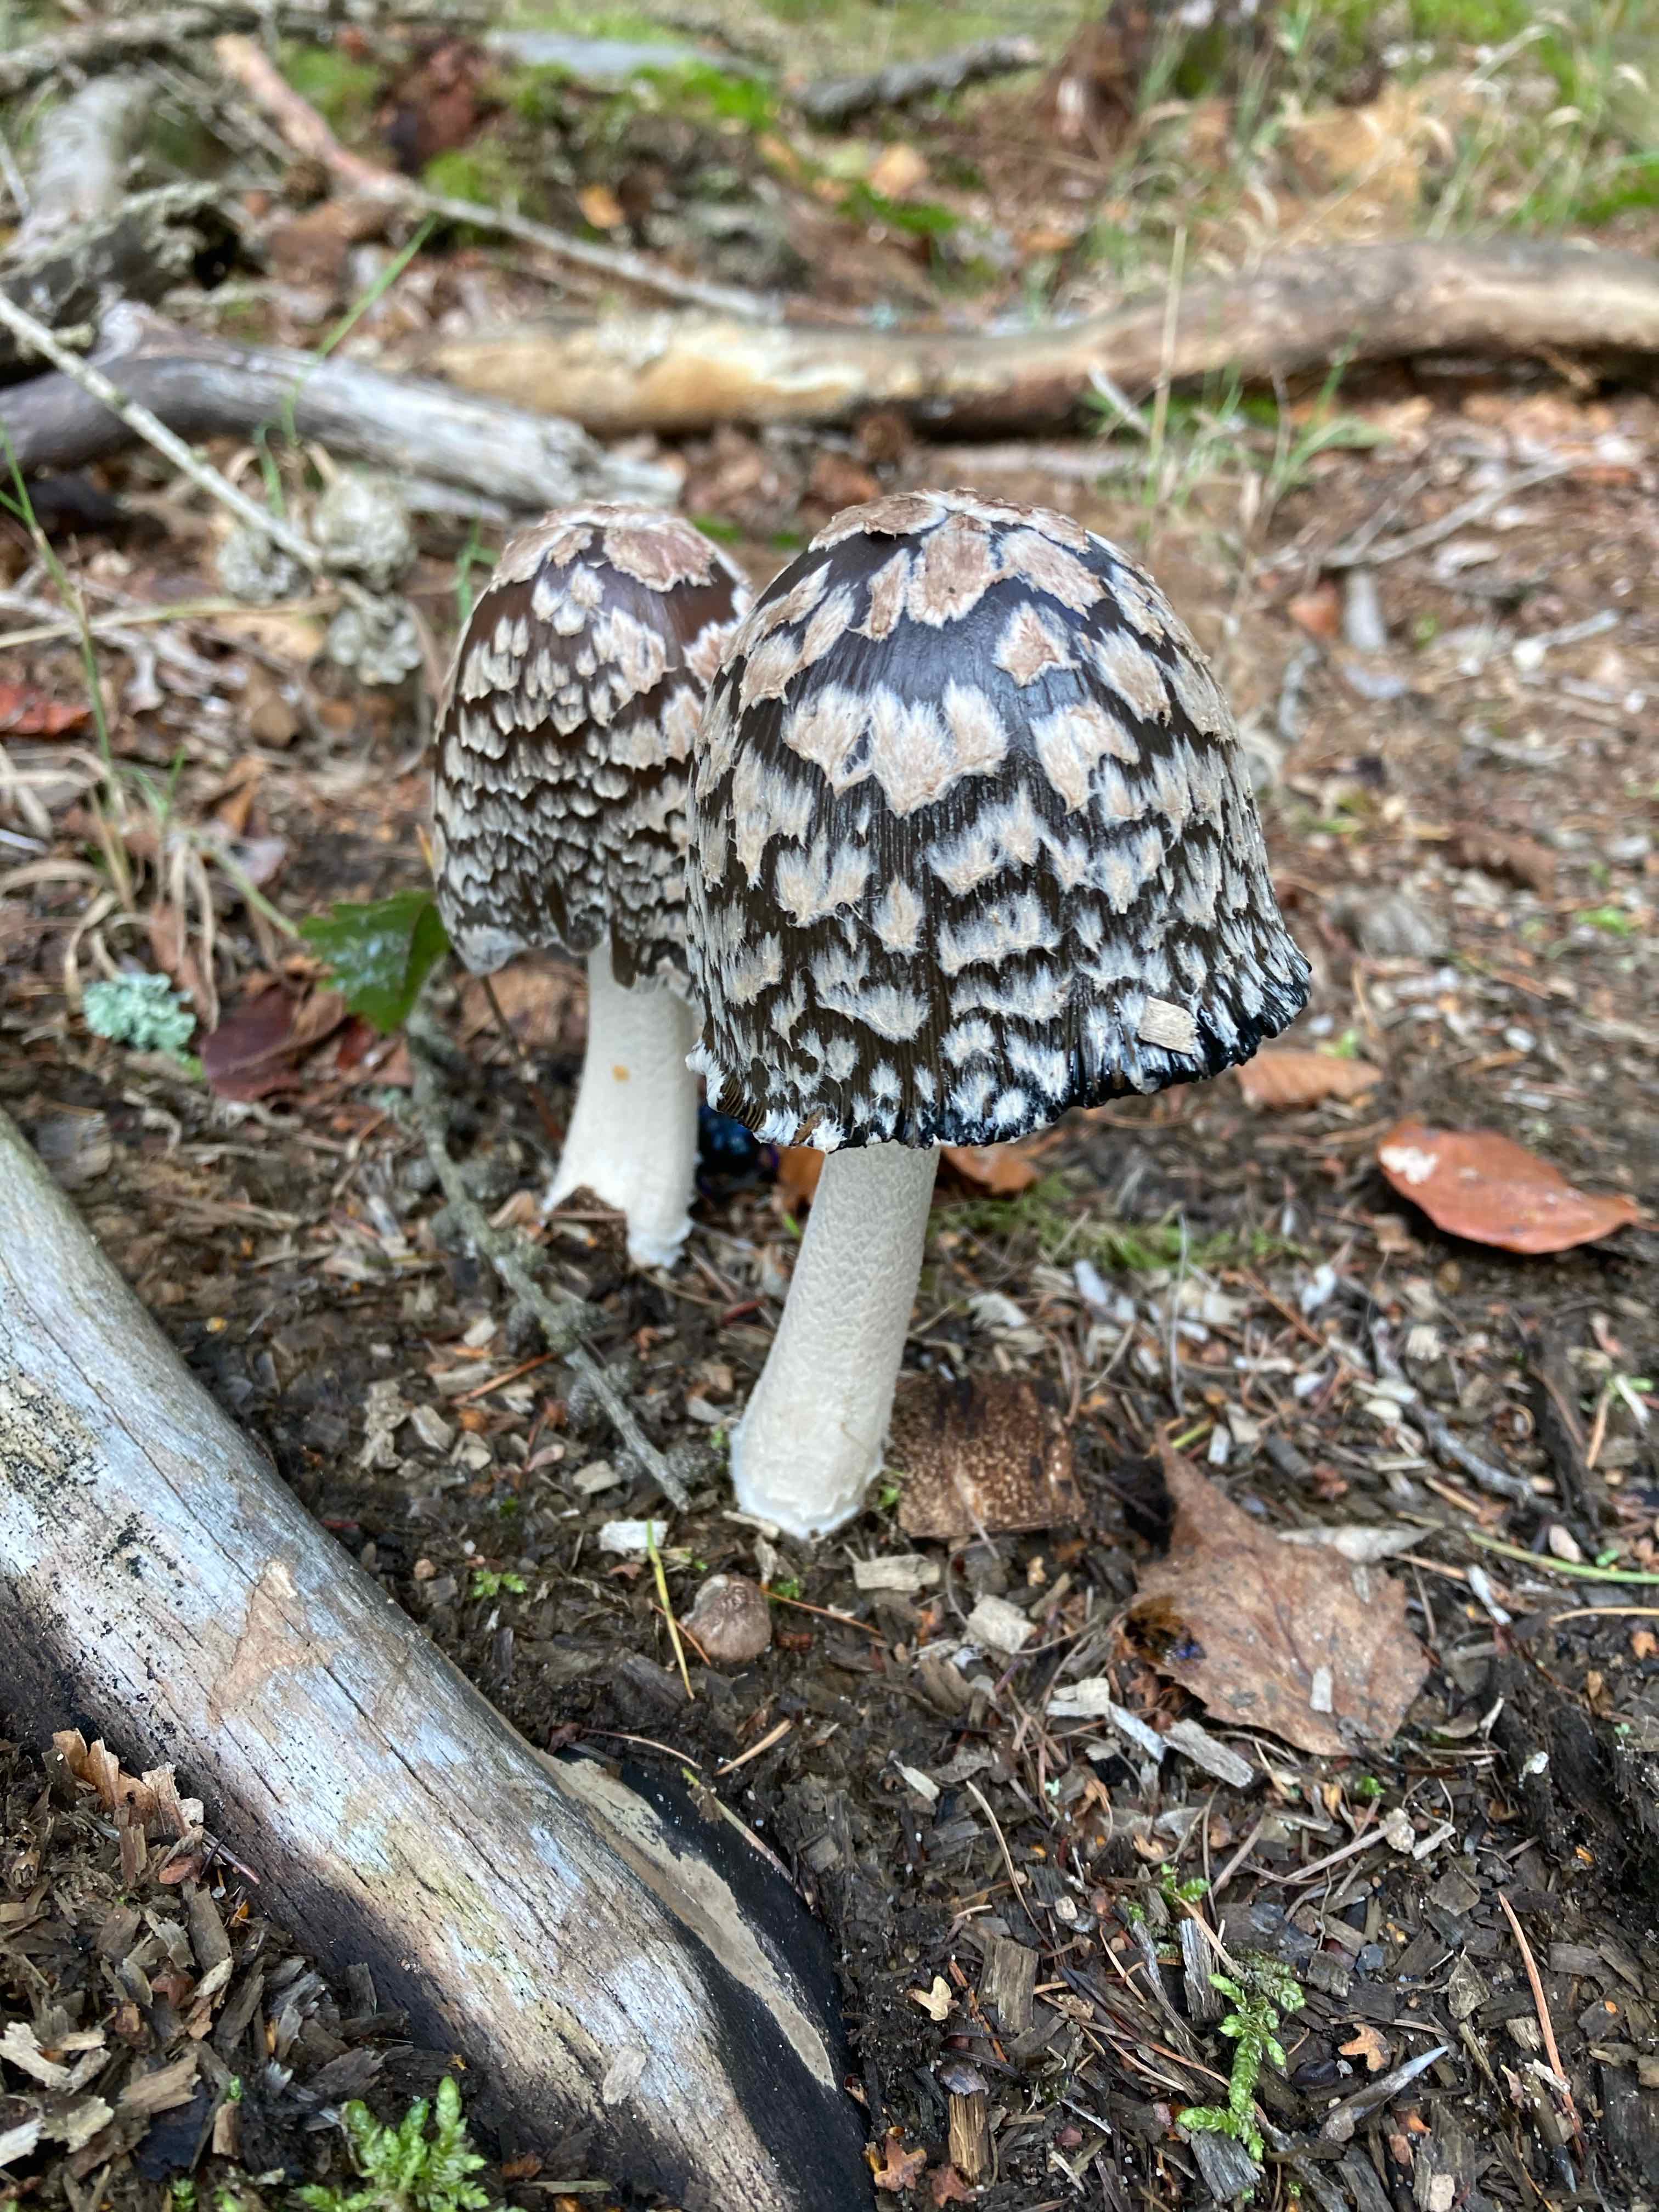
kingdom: Fungi
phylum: Basidiomycota
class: Agaricomycetes
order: Agaricales
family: Psathyrellaceae
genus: Coprinopsis
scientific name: Coprinopsis picacea
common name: skade-blækhat
